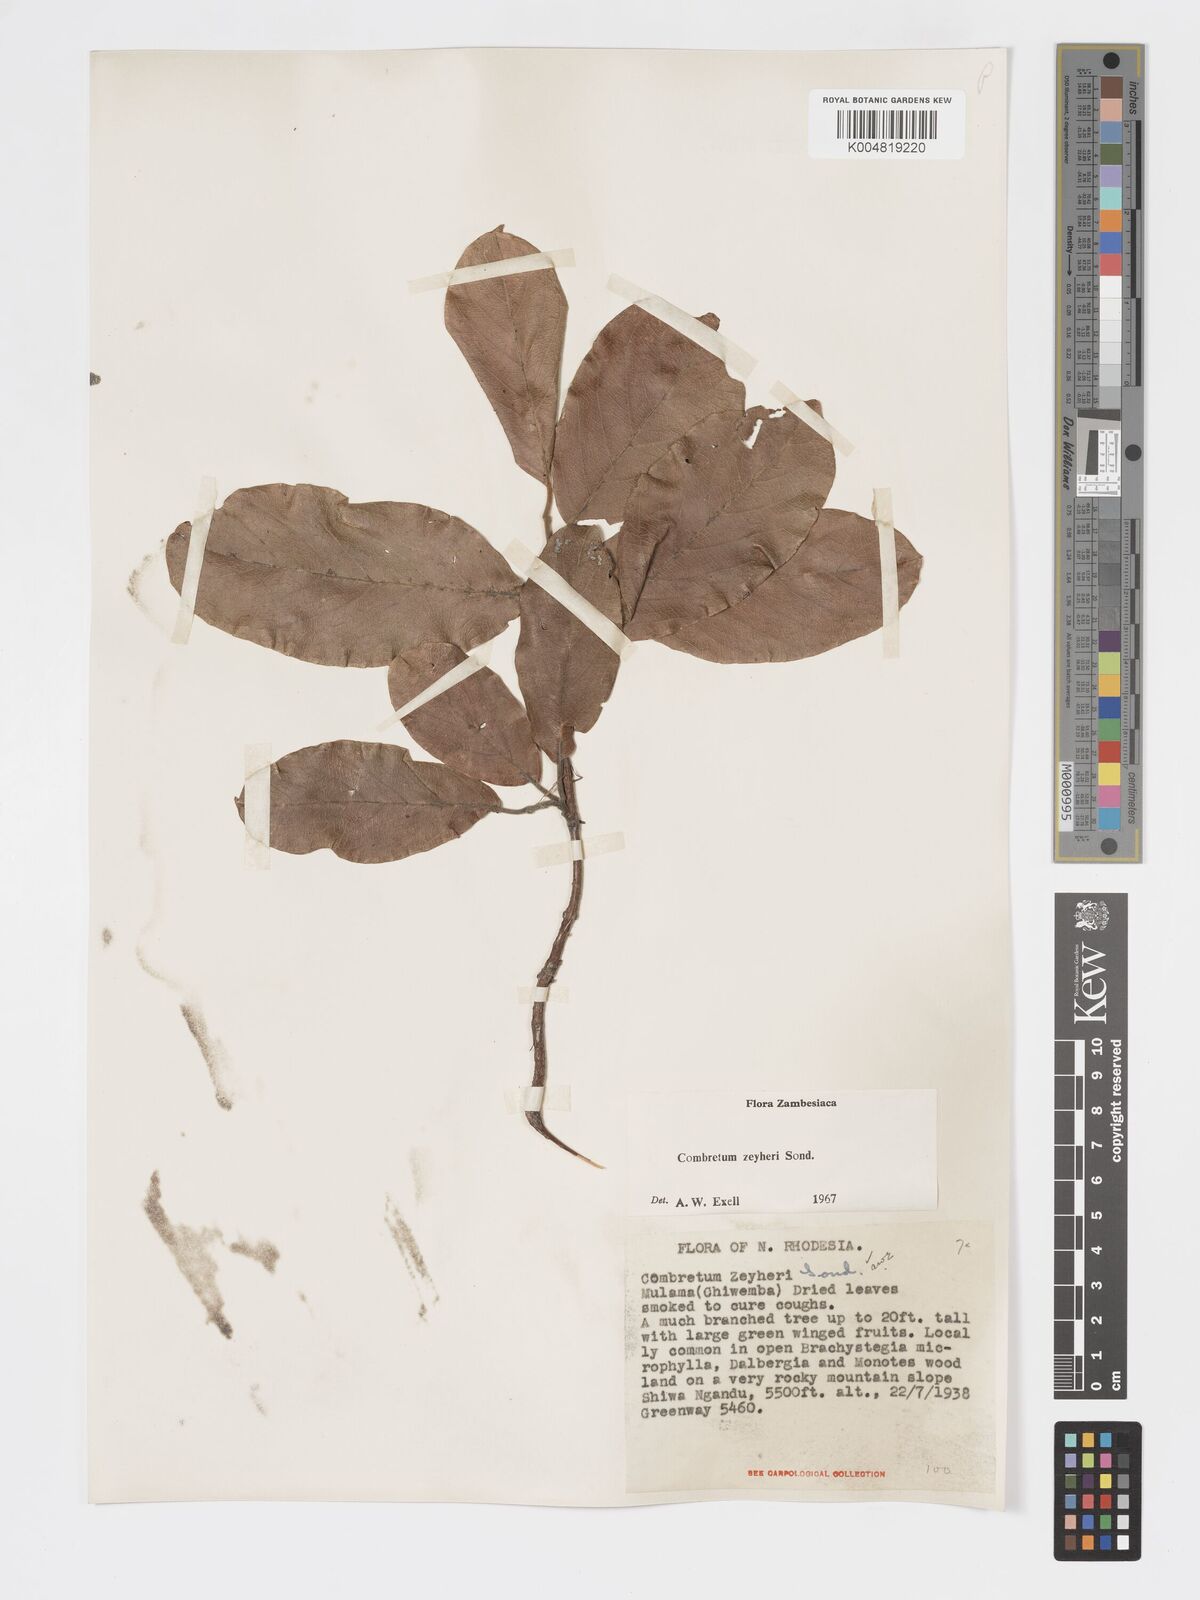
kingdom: Plantae
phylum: Tracheophyta
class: Magnoliopsida
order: Myrtales
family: Combretaceae
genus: Combretum
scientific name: Combretum zeyheri
